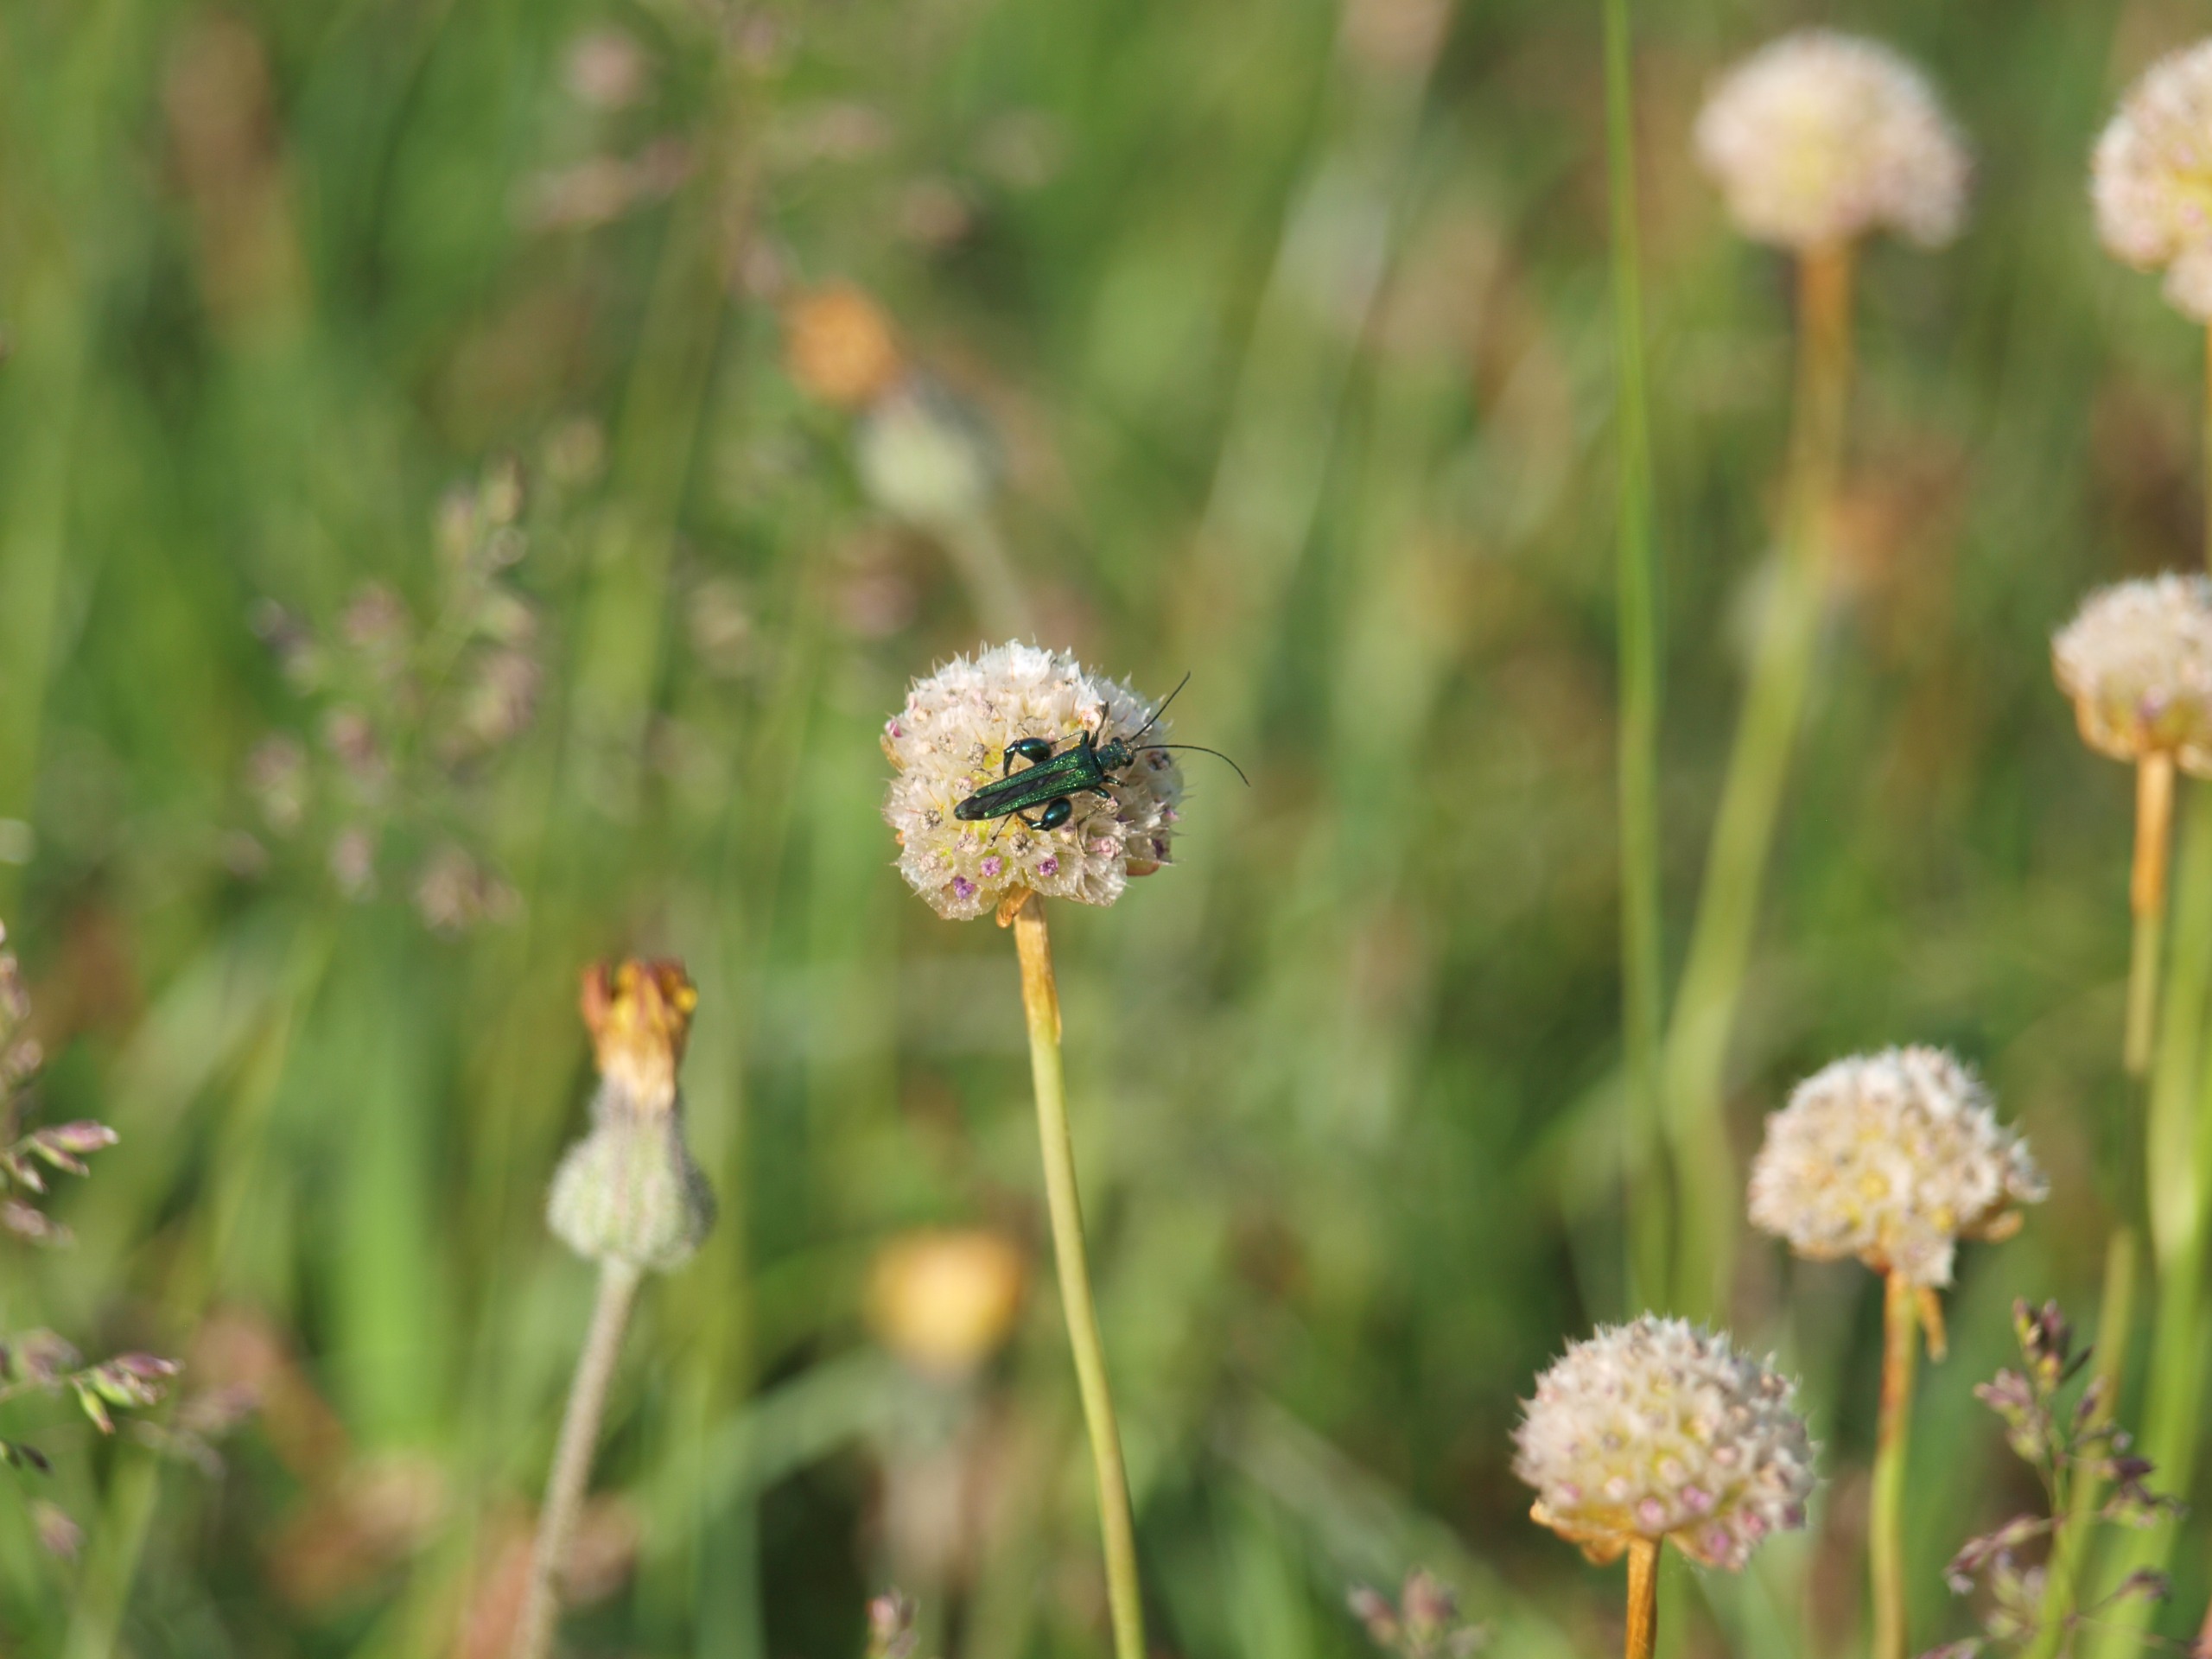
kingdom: Animalia
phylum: Arthropoda
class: Insecta
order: Coleoptera
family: Oedemeridae
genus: Oedemera
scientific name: Oedemera nobilis
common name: Tyklårssolbille
